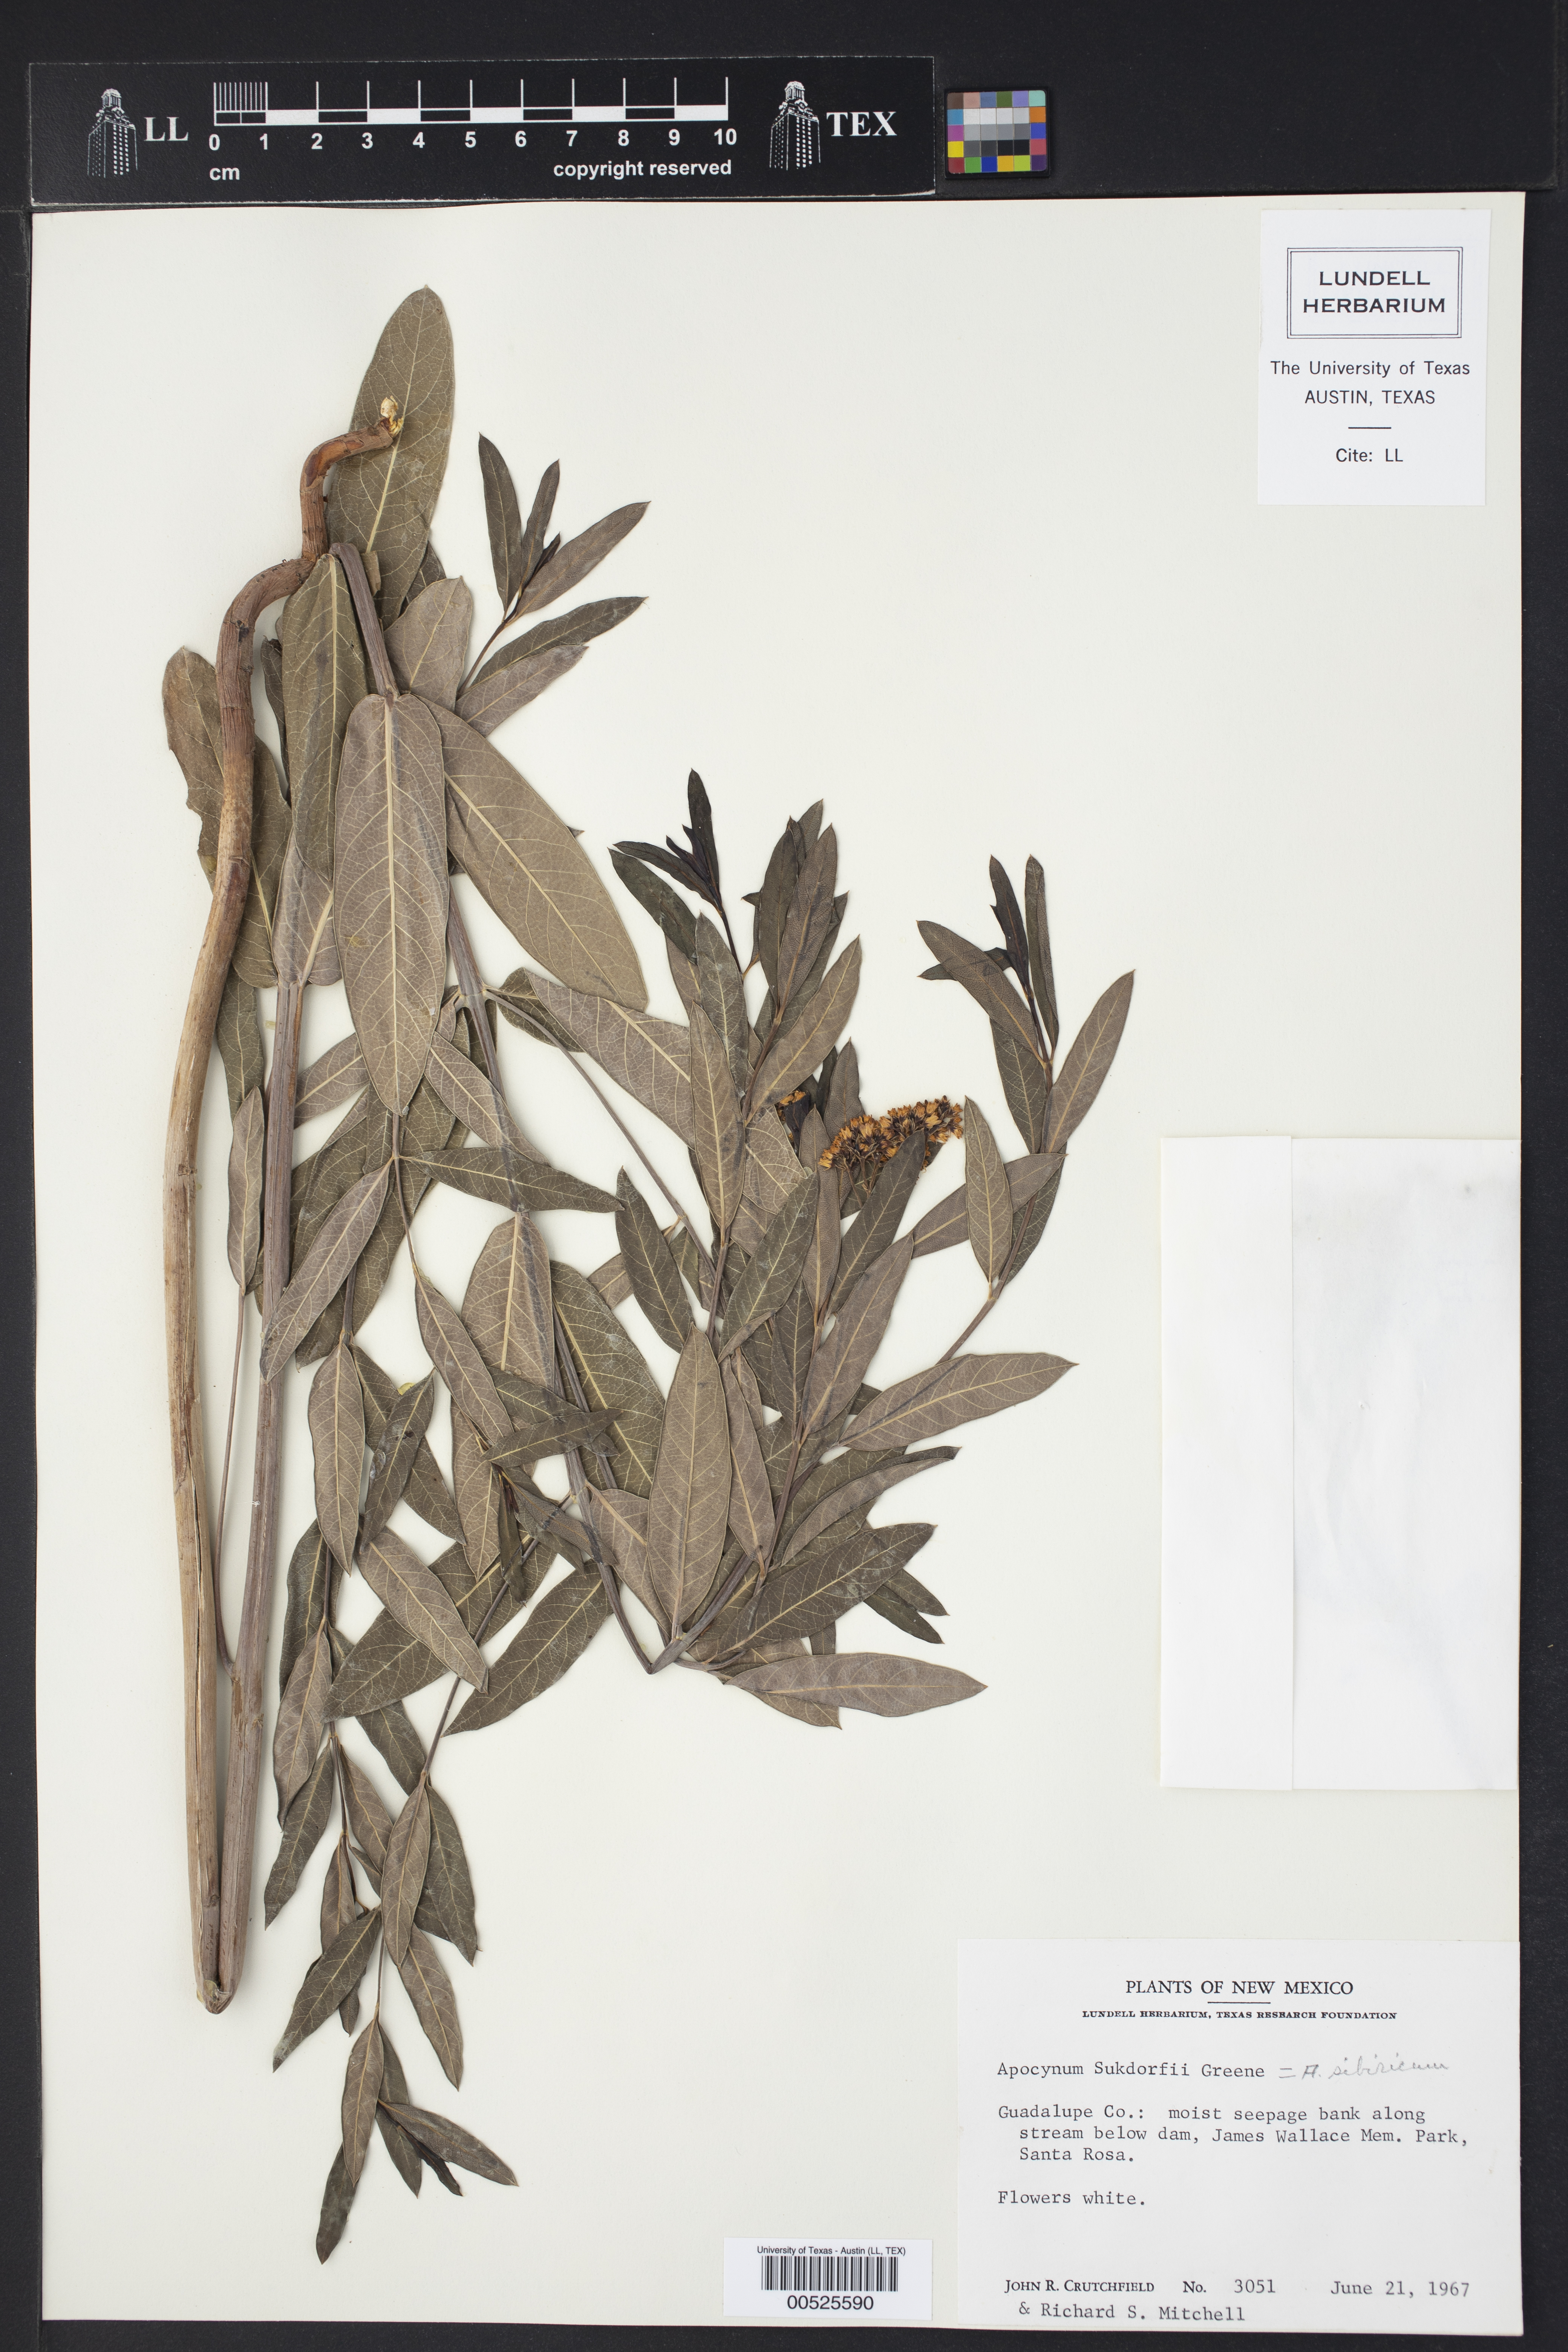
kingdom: Plantae
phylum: Tracheophyta
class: Magnoliopsida
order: Gentianales
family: Apocynaceae
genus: Apocynum
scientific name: Apocynum cannabinum
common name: Hemp dogbane
